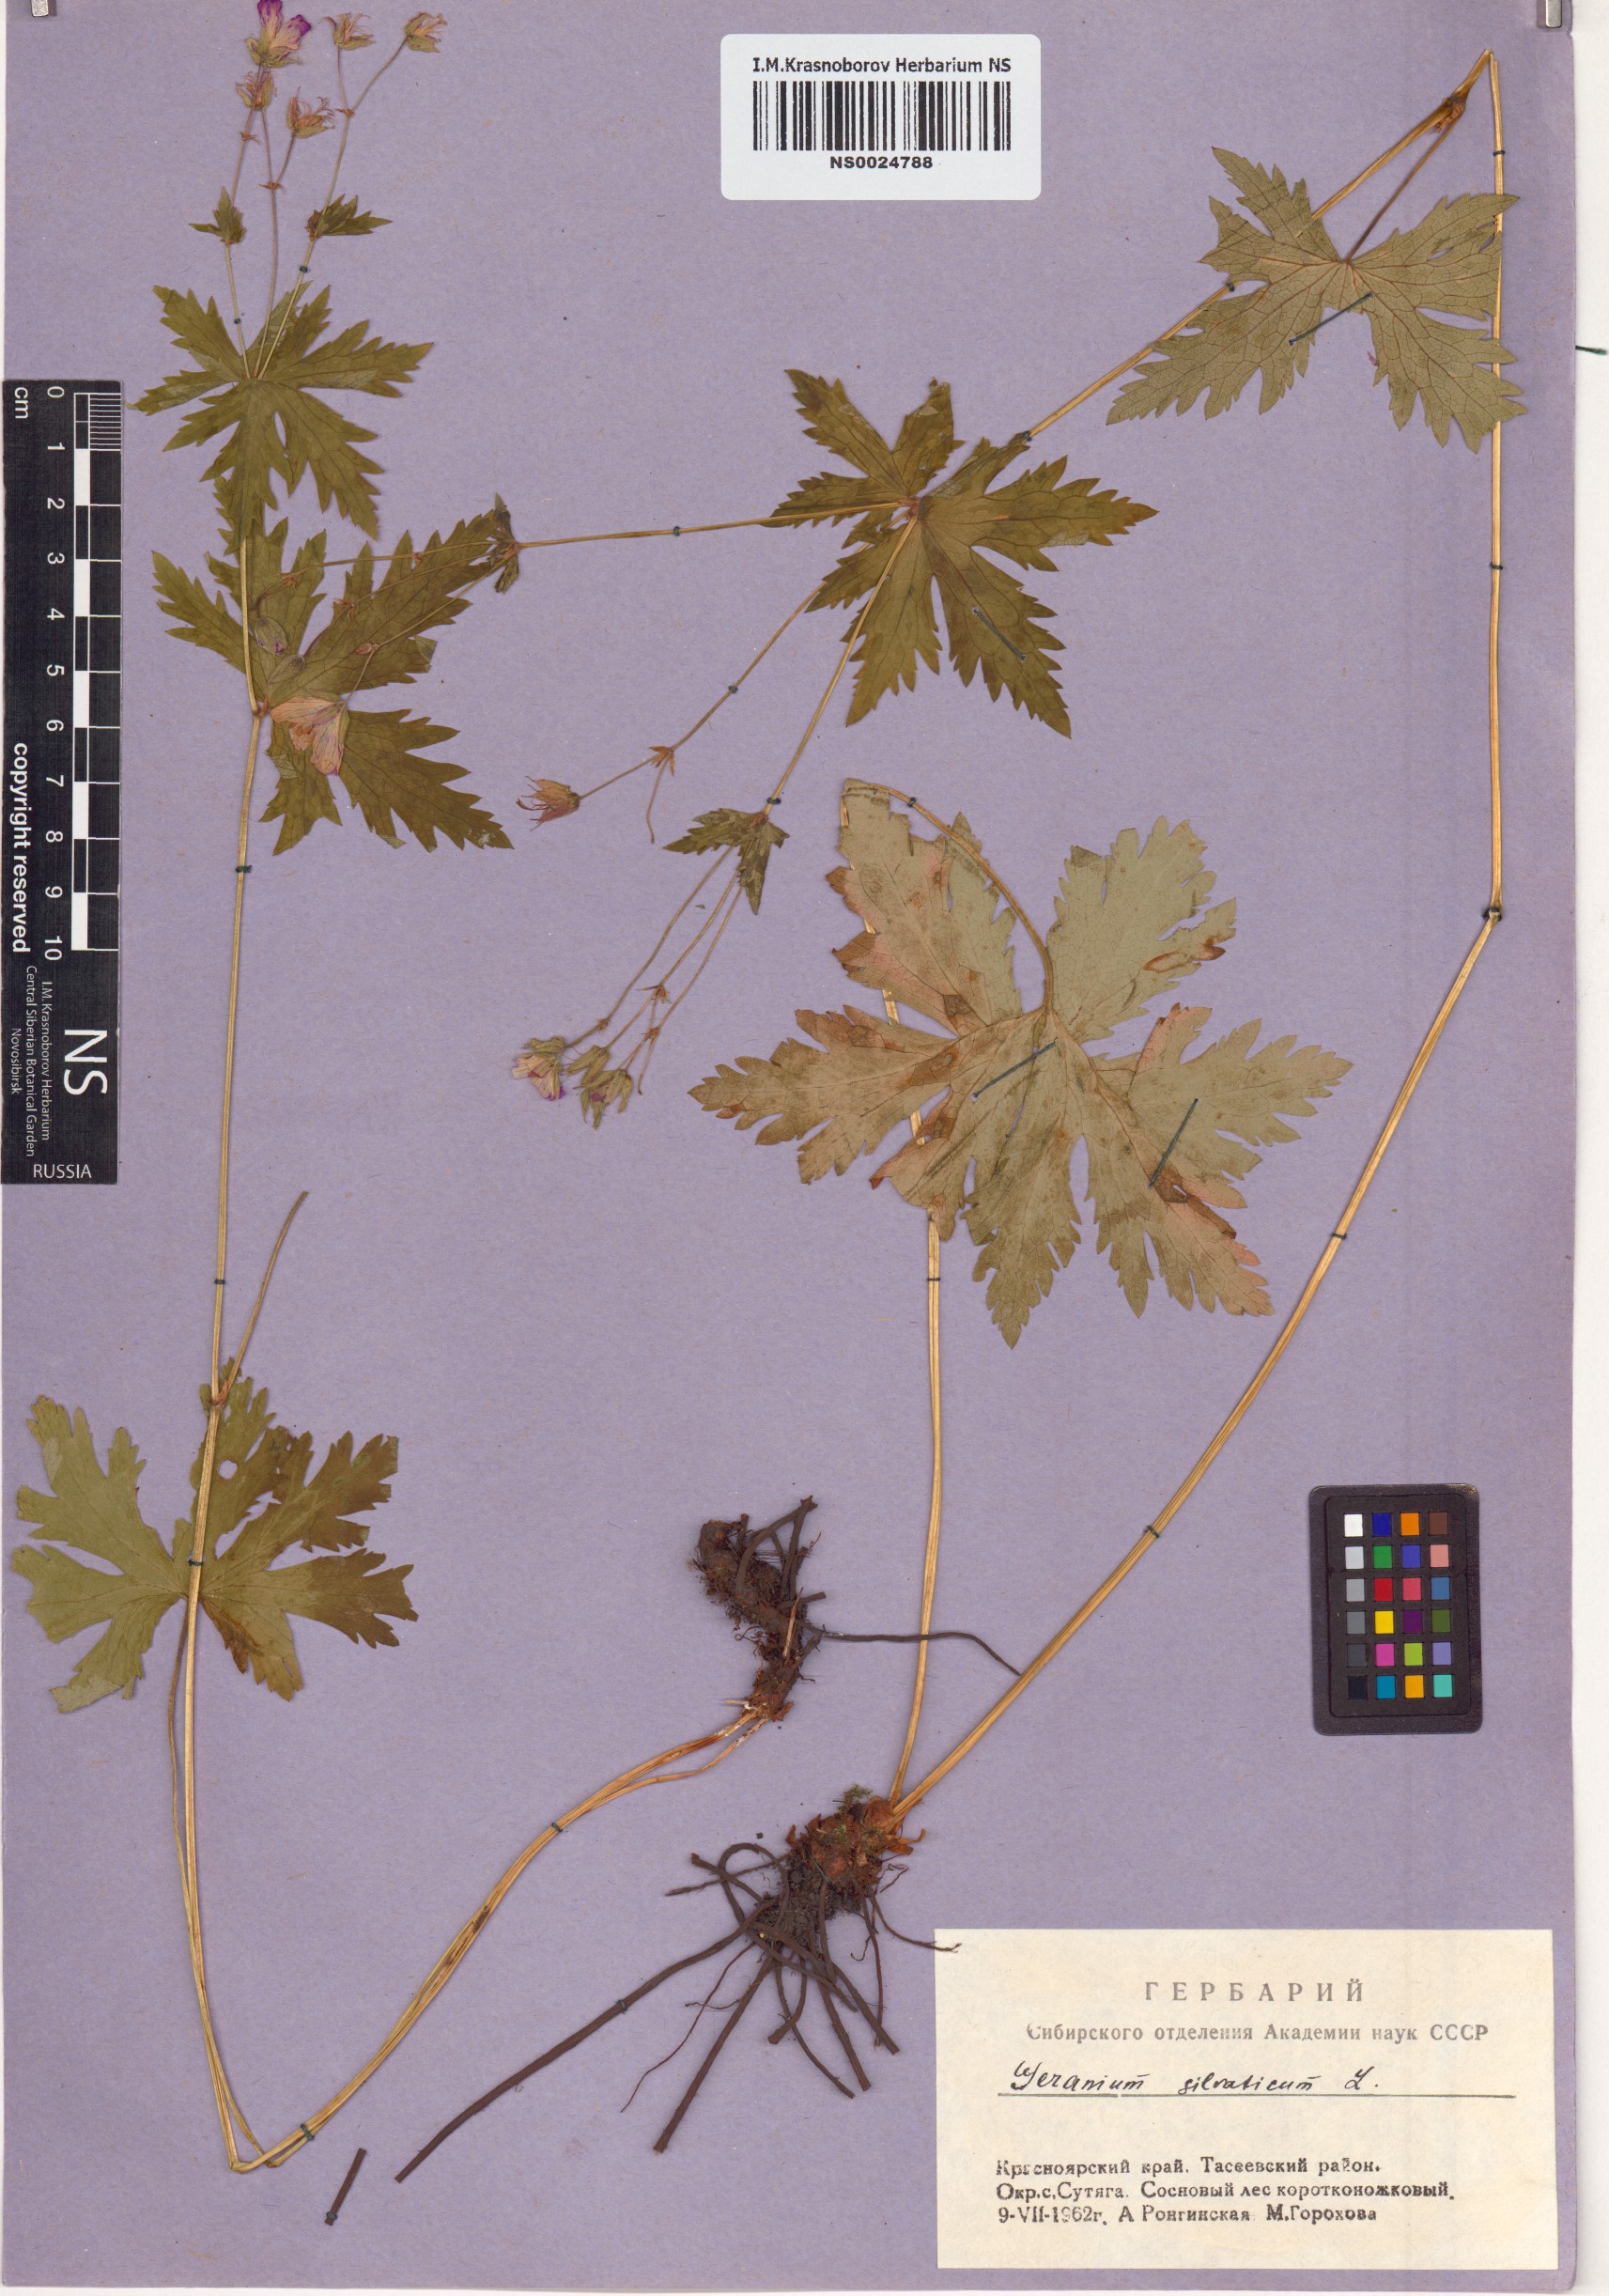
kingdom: Plantae
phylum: Tracheophyta
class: Magnoliopsida
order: Geraniales
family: Geraniaceae
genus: Geranium
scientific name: Geranium sylvaticum
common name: Wood crane's-bill
